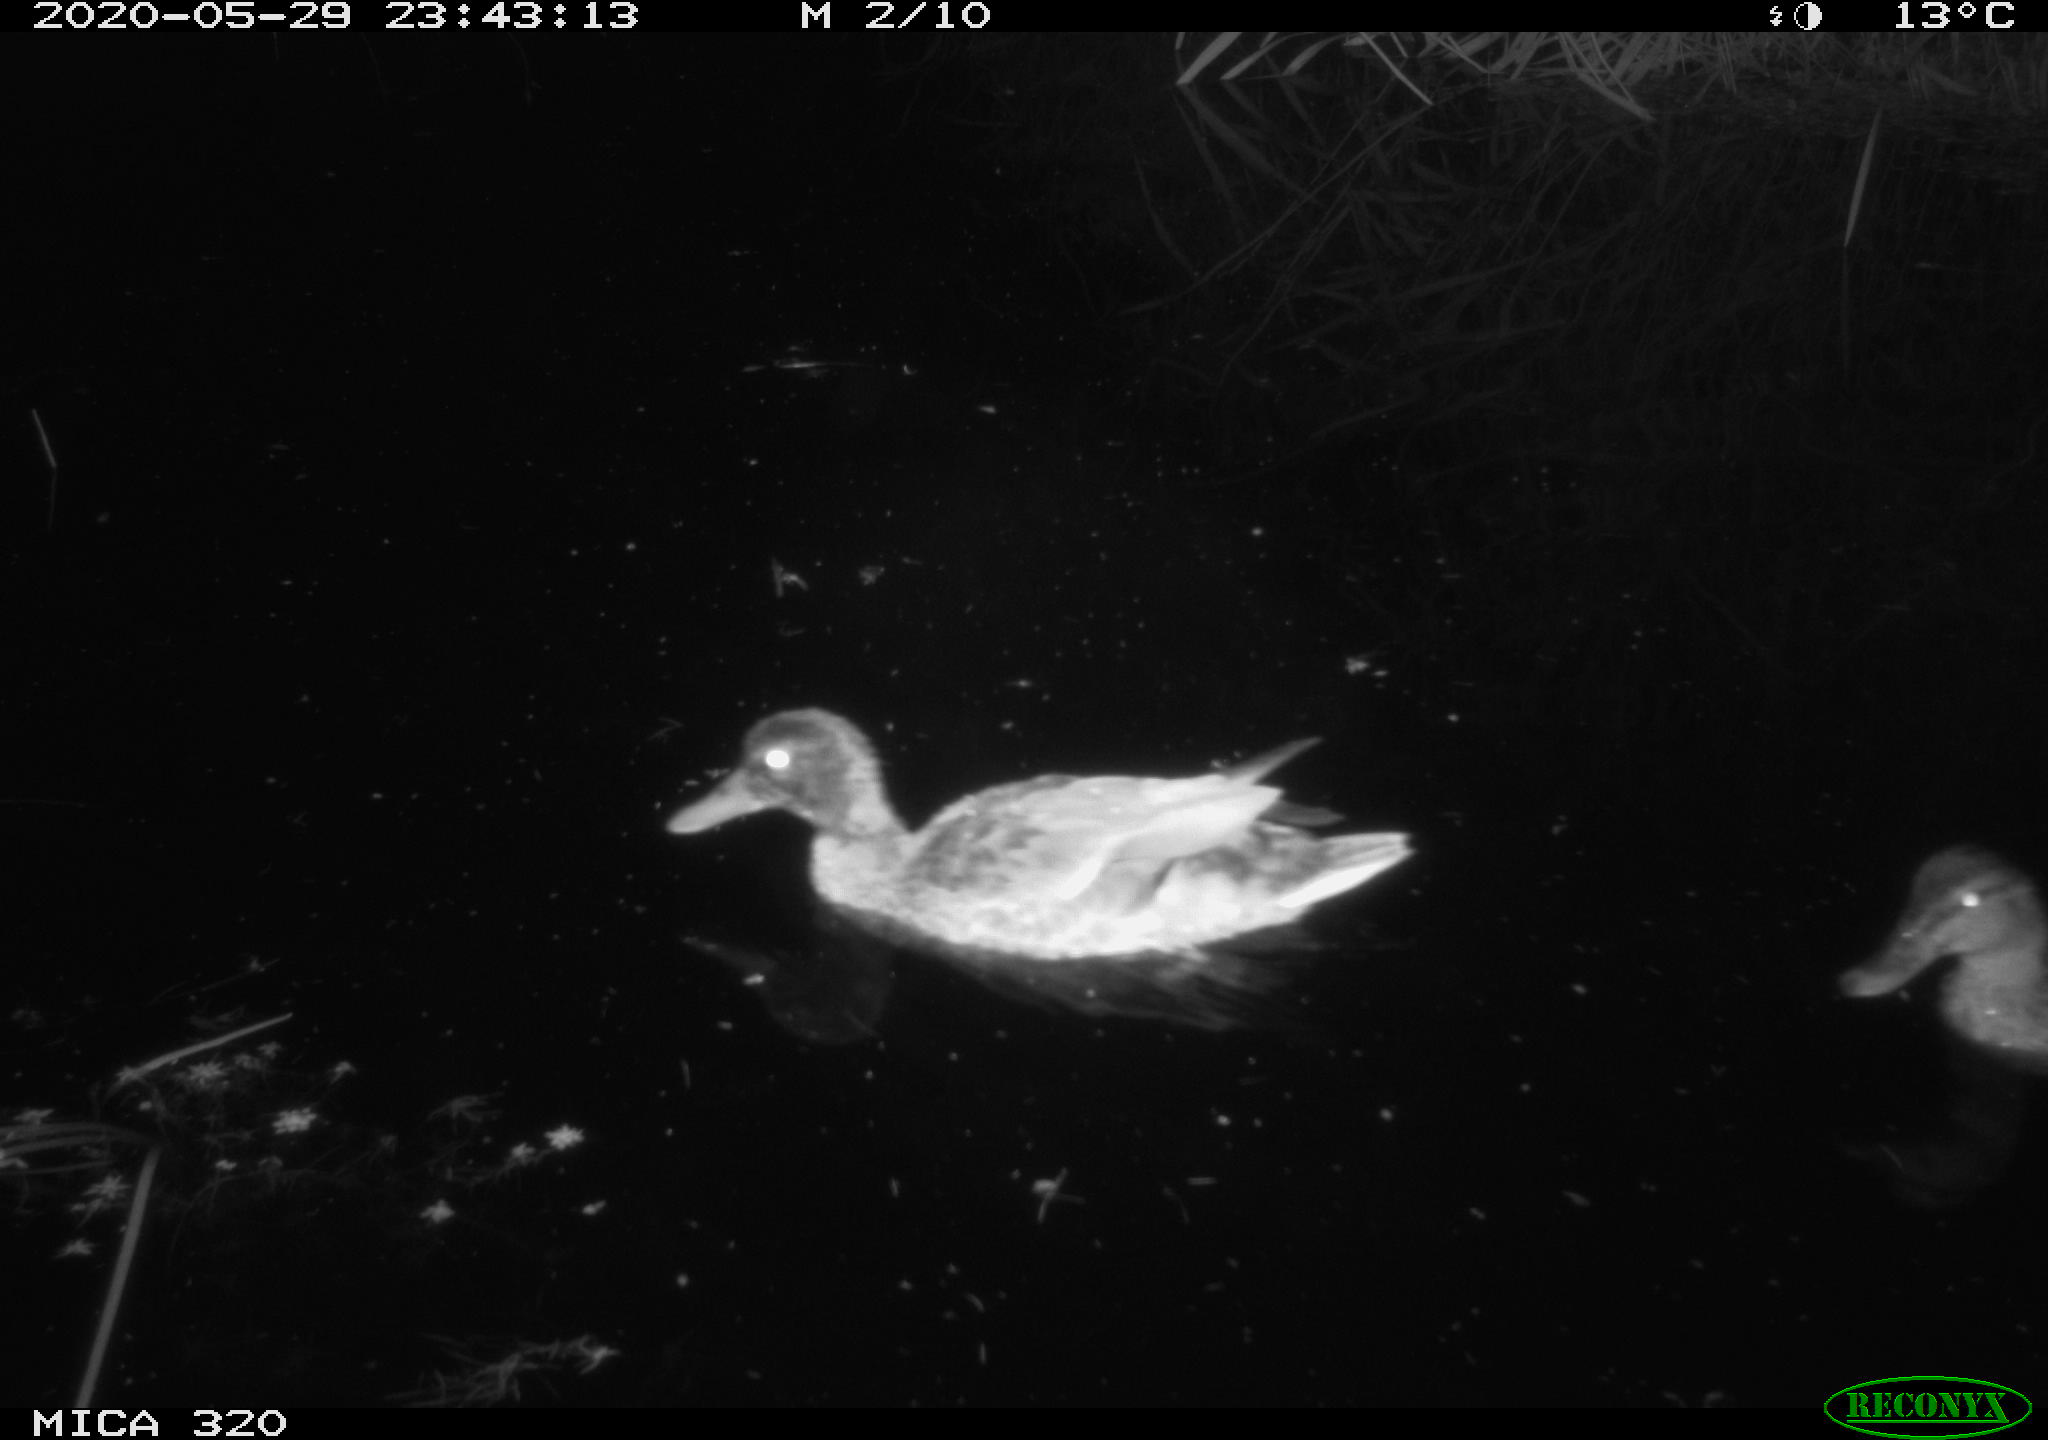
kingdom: Animalia
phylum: Chordata
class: Aves
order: Anseriformes
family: Anatidae
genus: Anas
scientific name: Anas platyrhynchos
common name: Mallard
